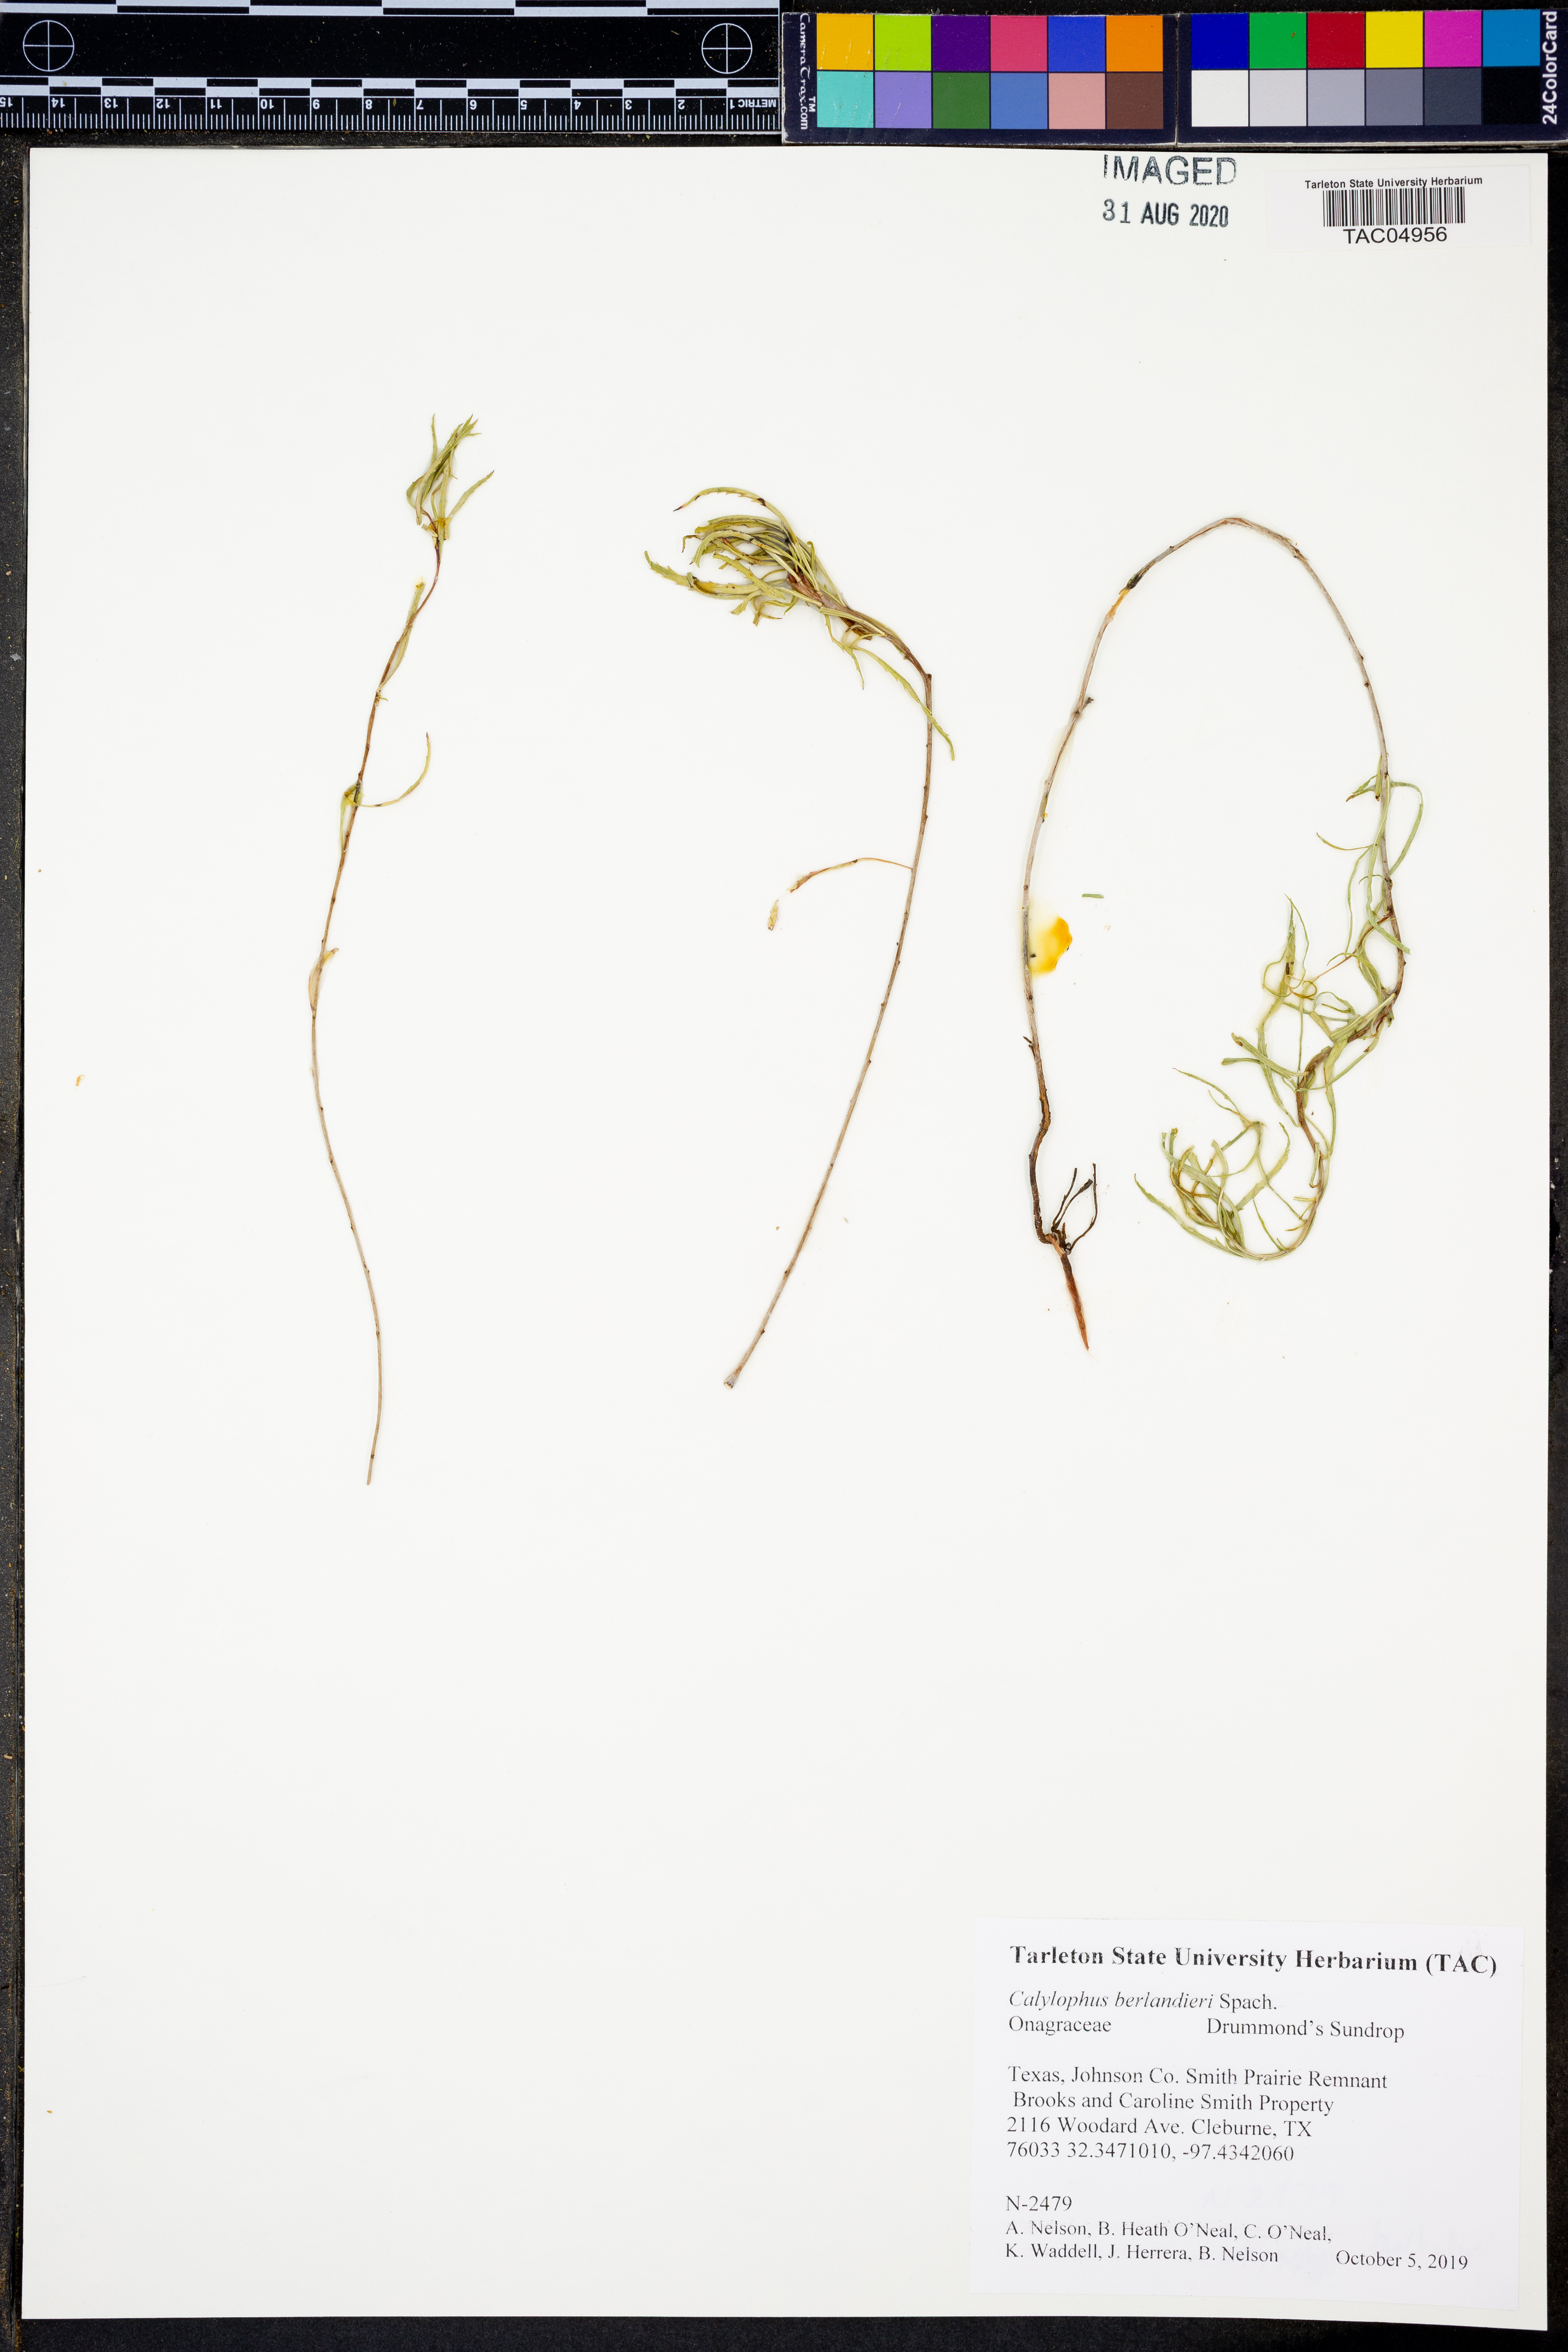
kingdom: Plantae
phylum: Tracheophyta
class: Magnoliopsida
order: Myrtales
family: Onagraceae
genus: Oenothera
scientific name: Oenothera capillifolia
